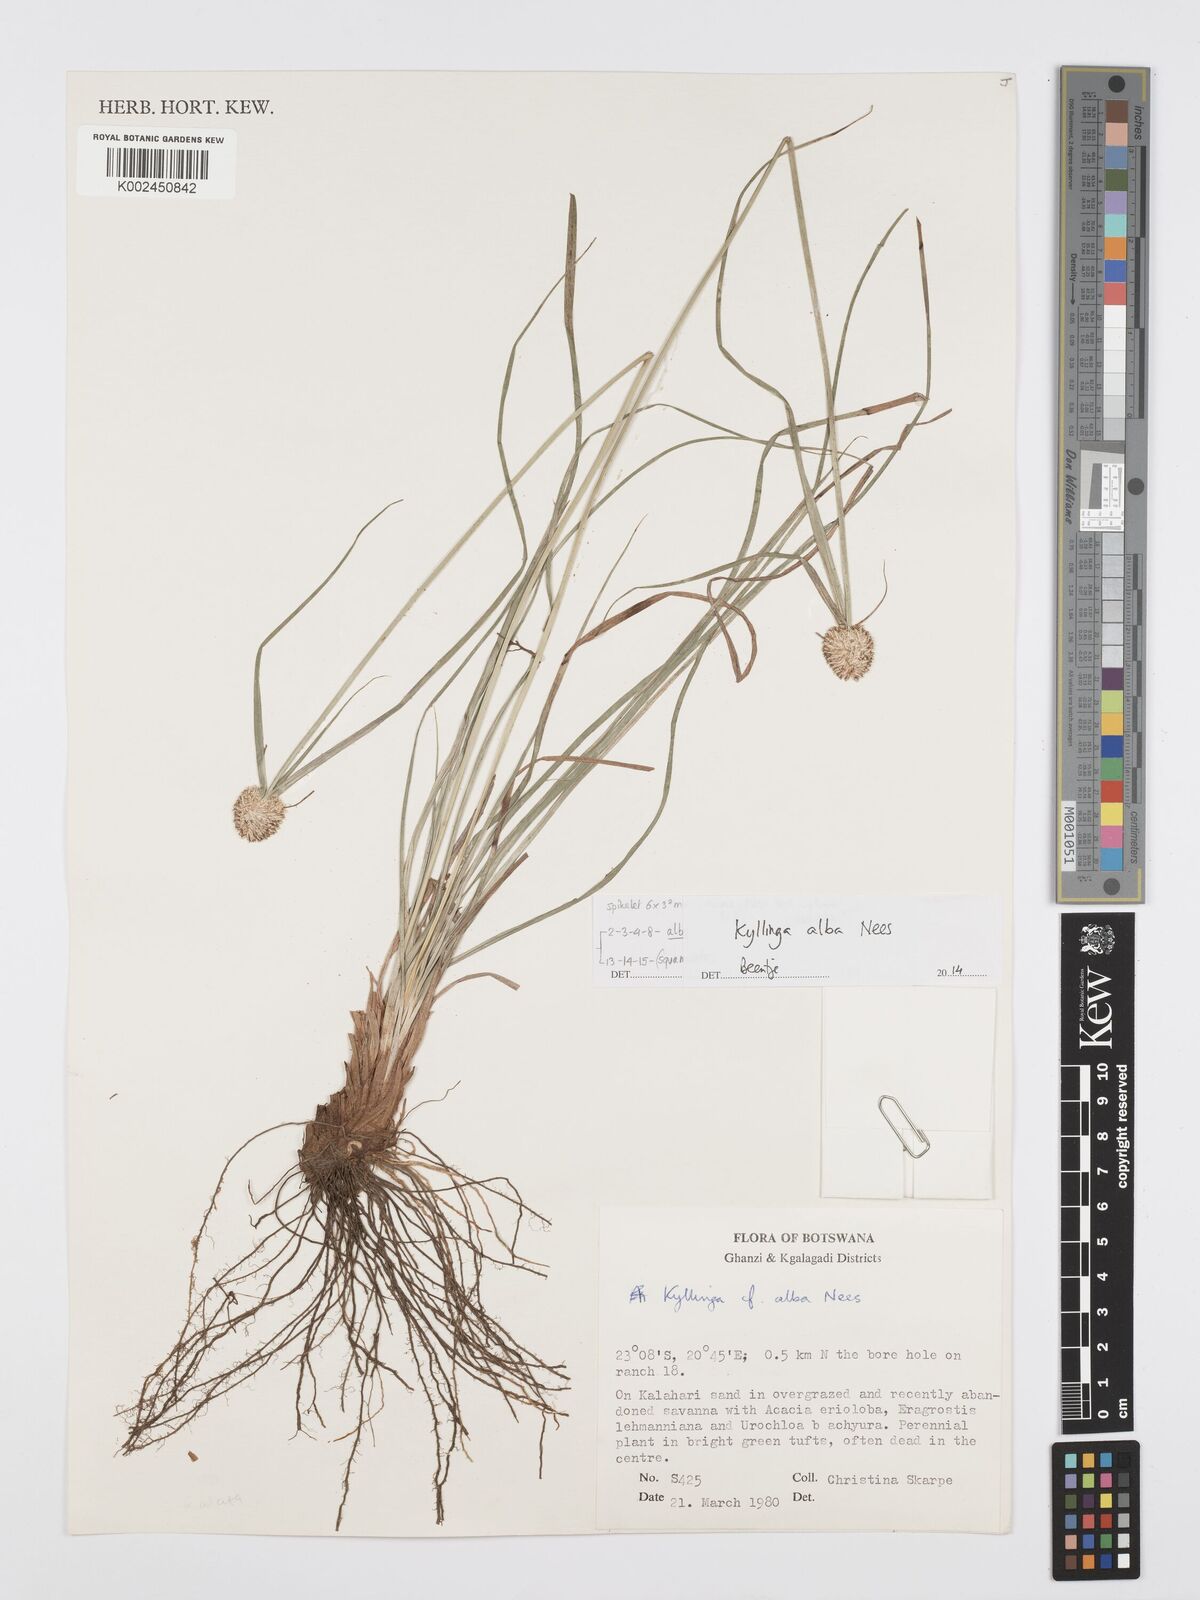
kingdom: Plantae
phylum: Tracheophyta
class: Liliopsida
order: Poales
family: Cyperaceae
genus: Cyperus
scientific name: Cyperus
